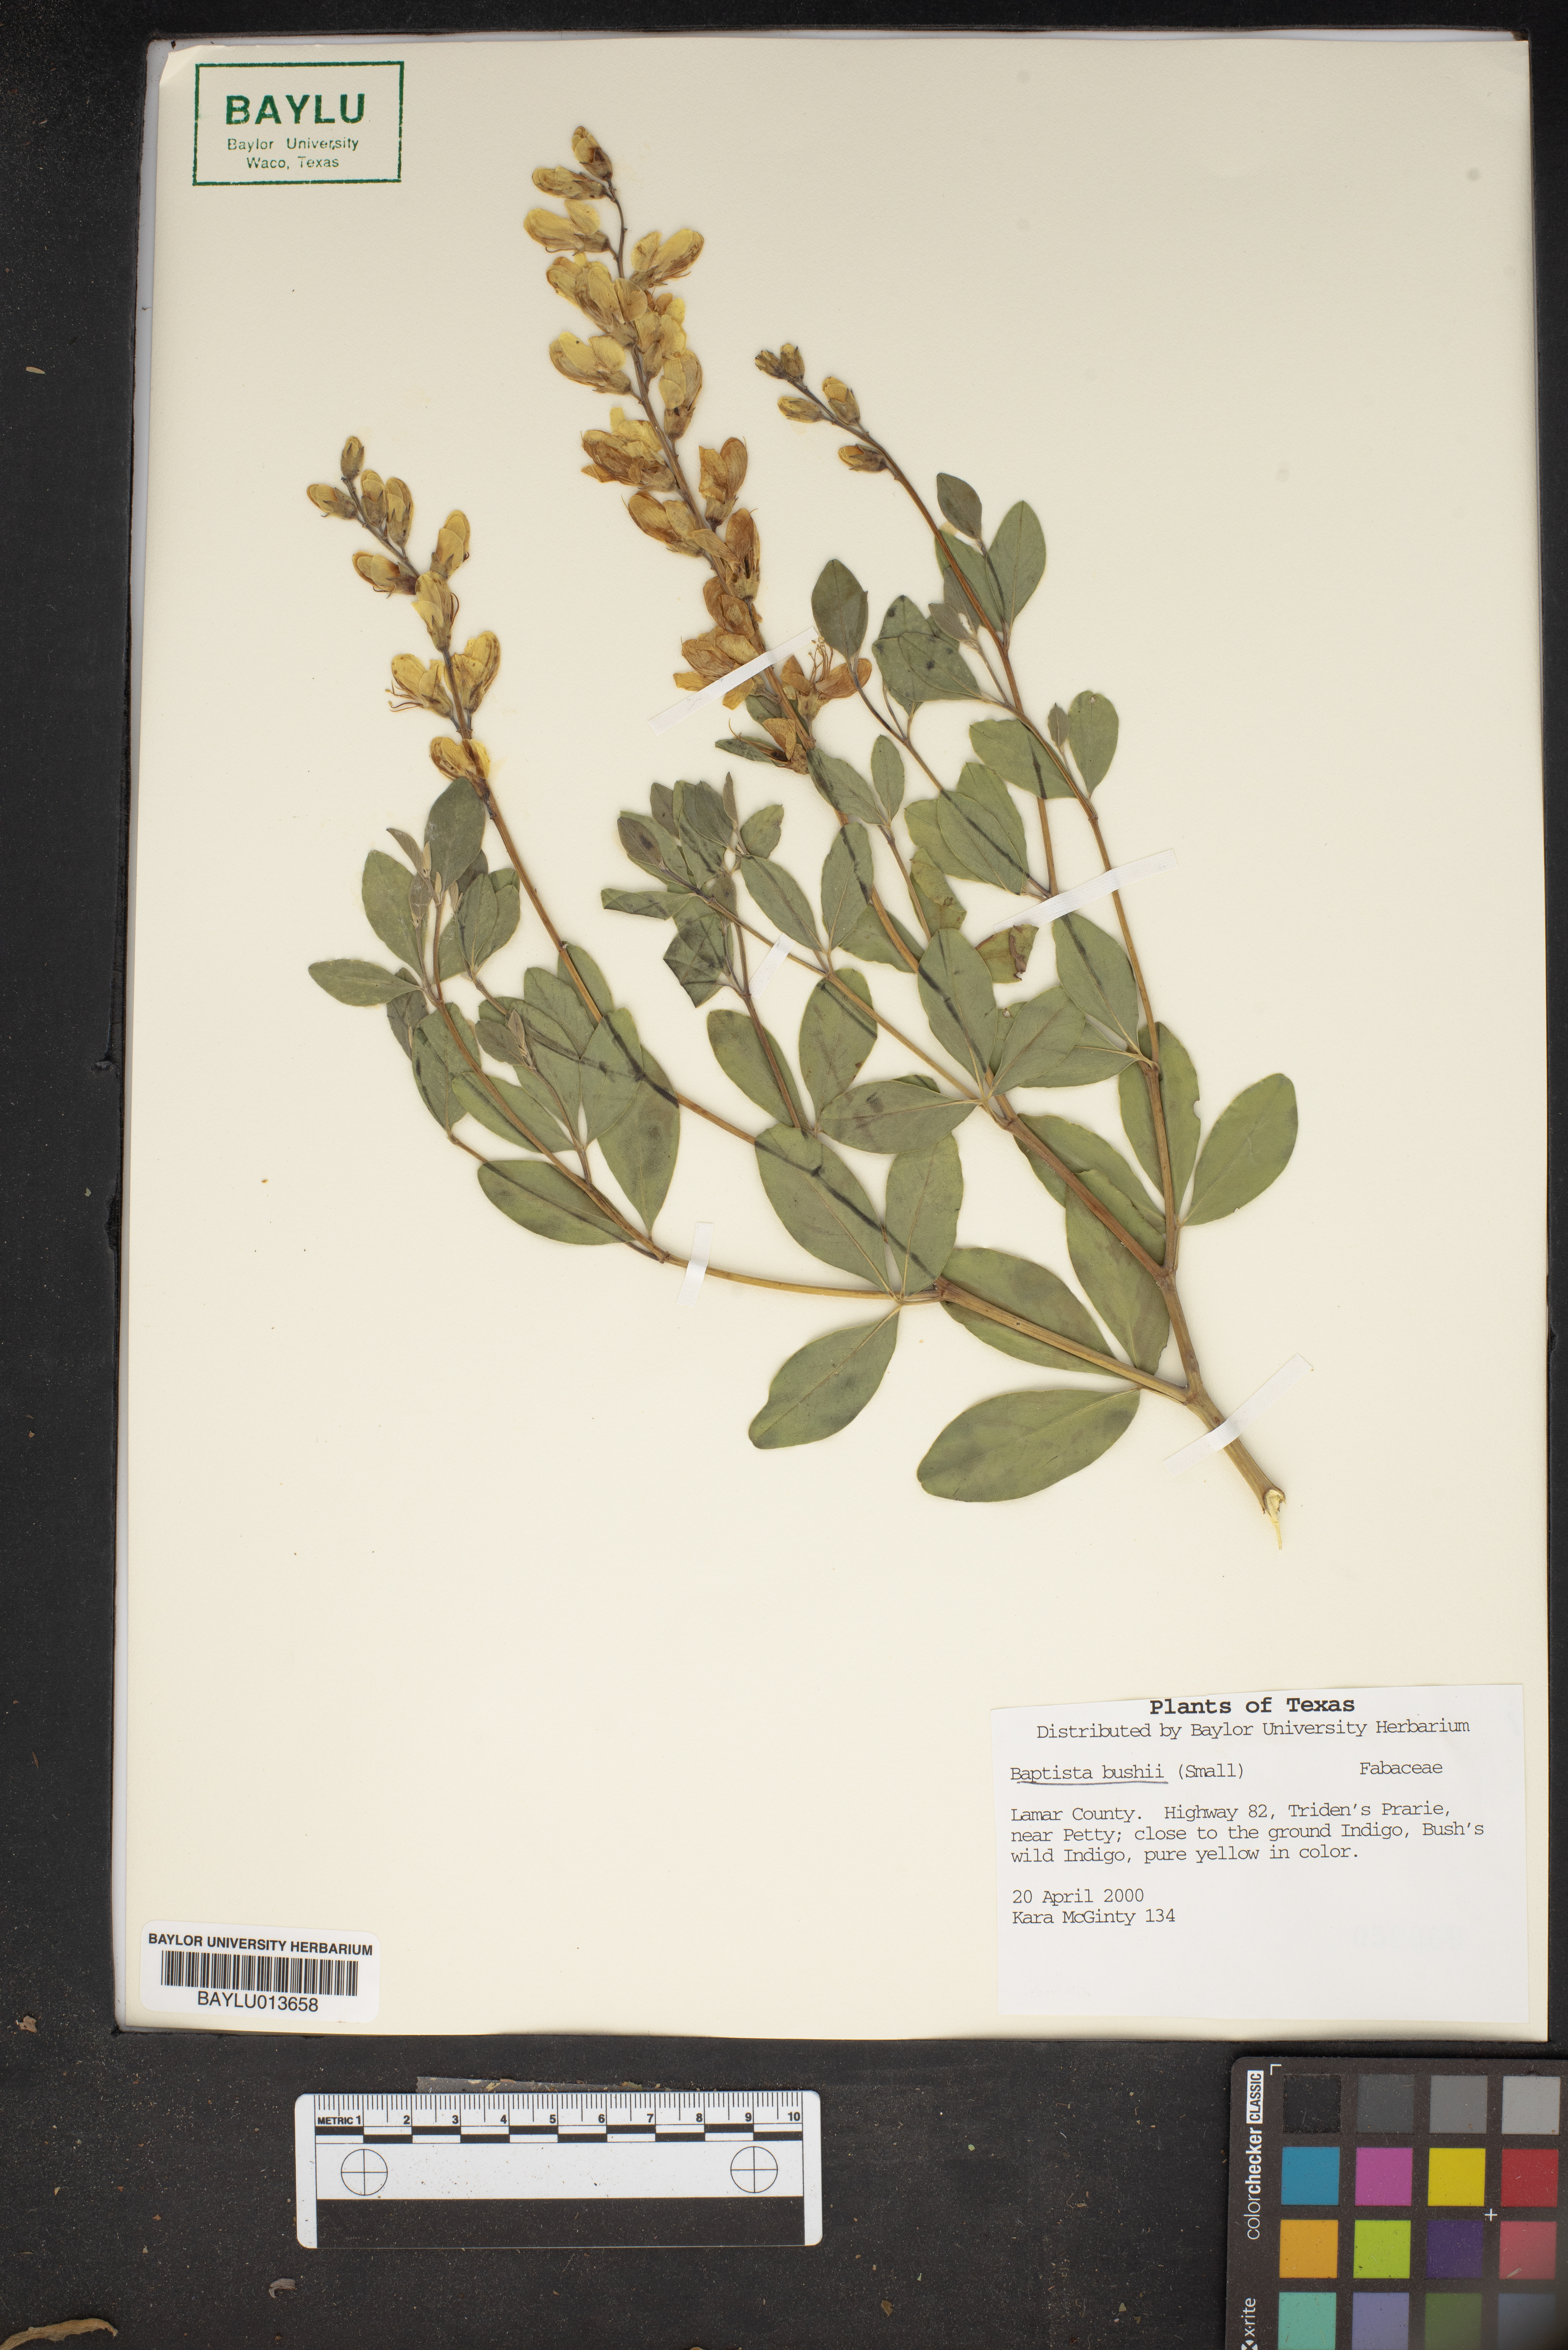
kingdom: Plantae
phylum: Tracheophyta
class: Magnoliopsida
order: Fabales
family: Fabaceae
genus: Baptisia
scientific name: Baptisia bushii
